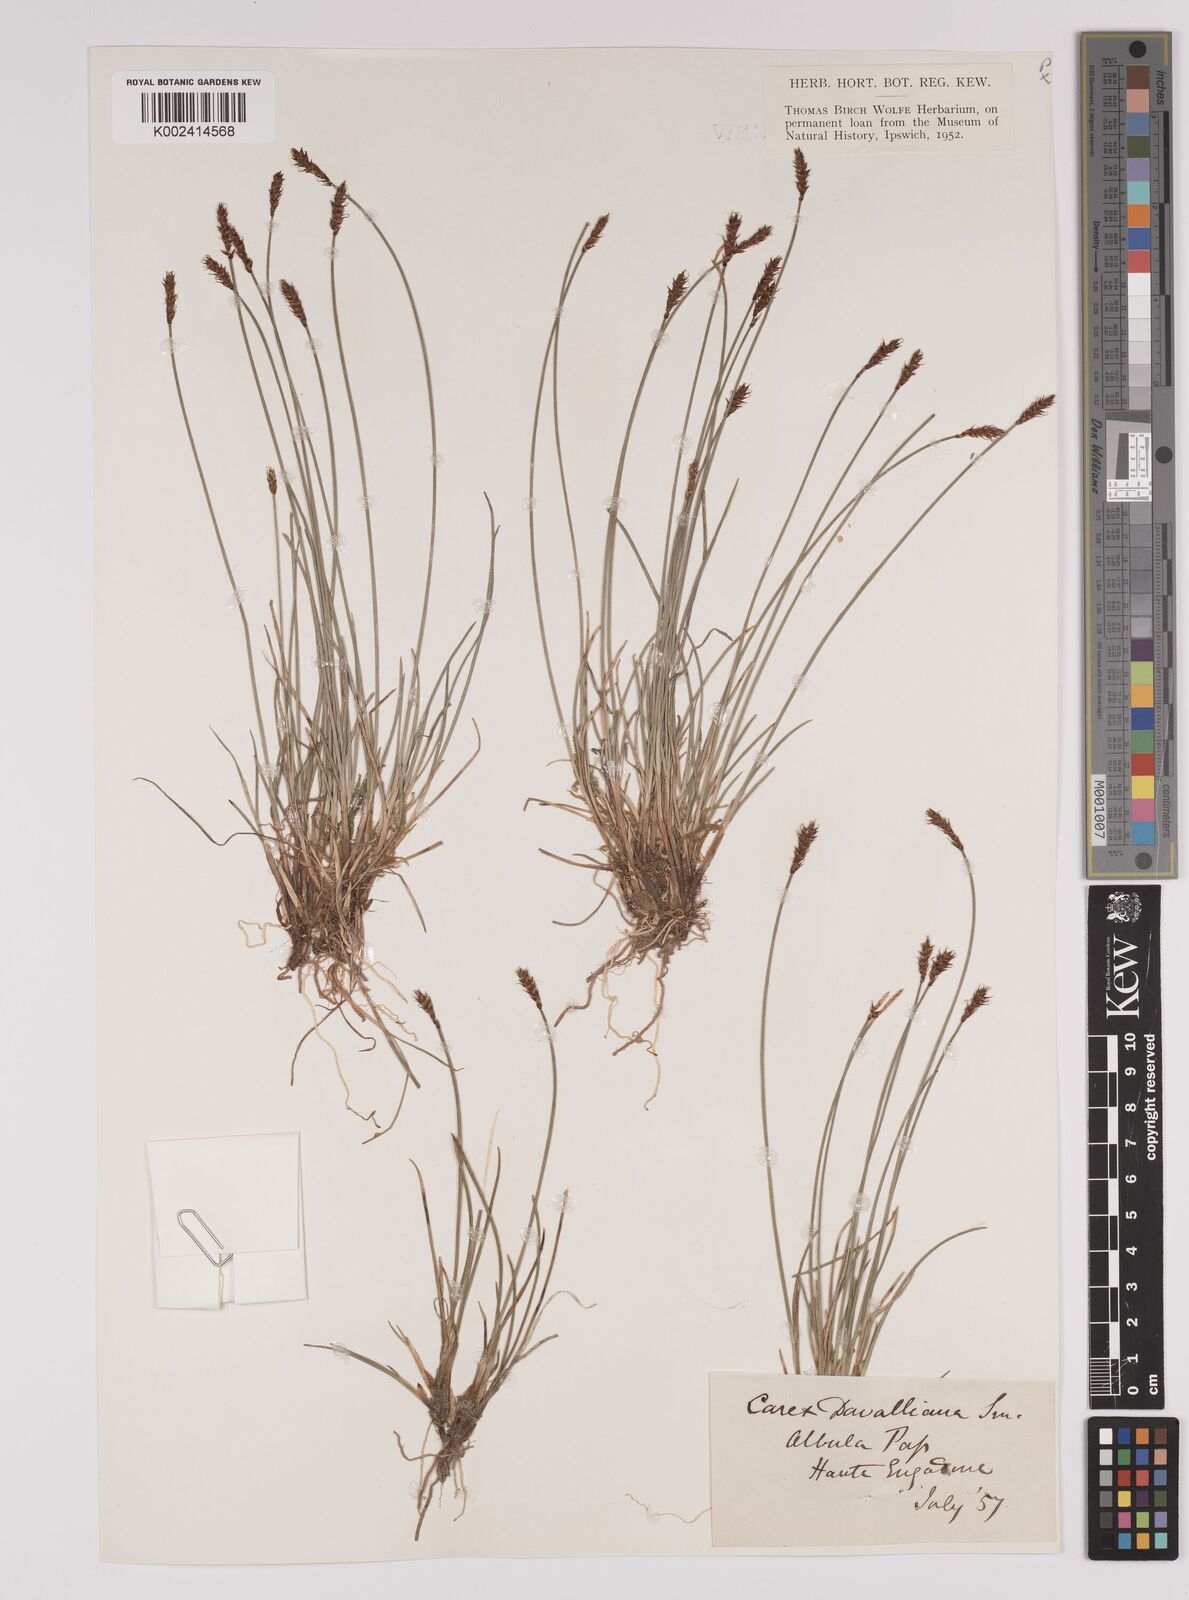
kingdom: Plantae
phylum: Tracheophyta
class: Liliopsida
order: Poales
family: Cyperaceae
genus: Carex
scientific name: Carex davalliana
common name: Davall's sedge
